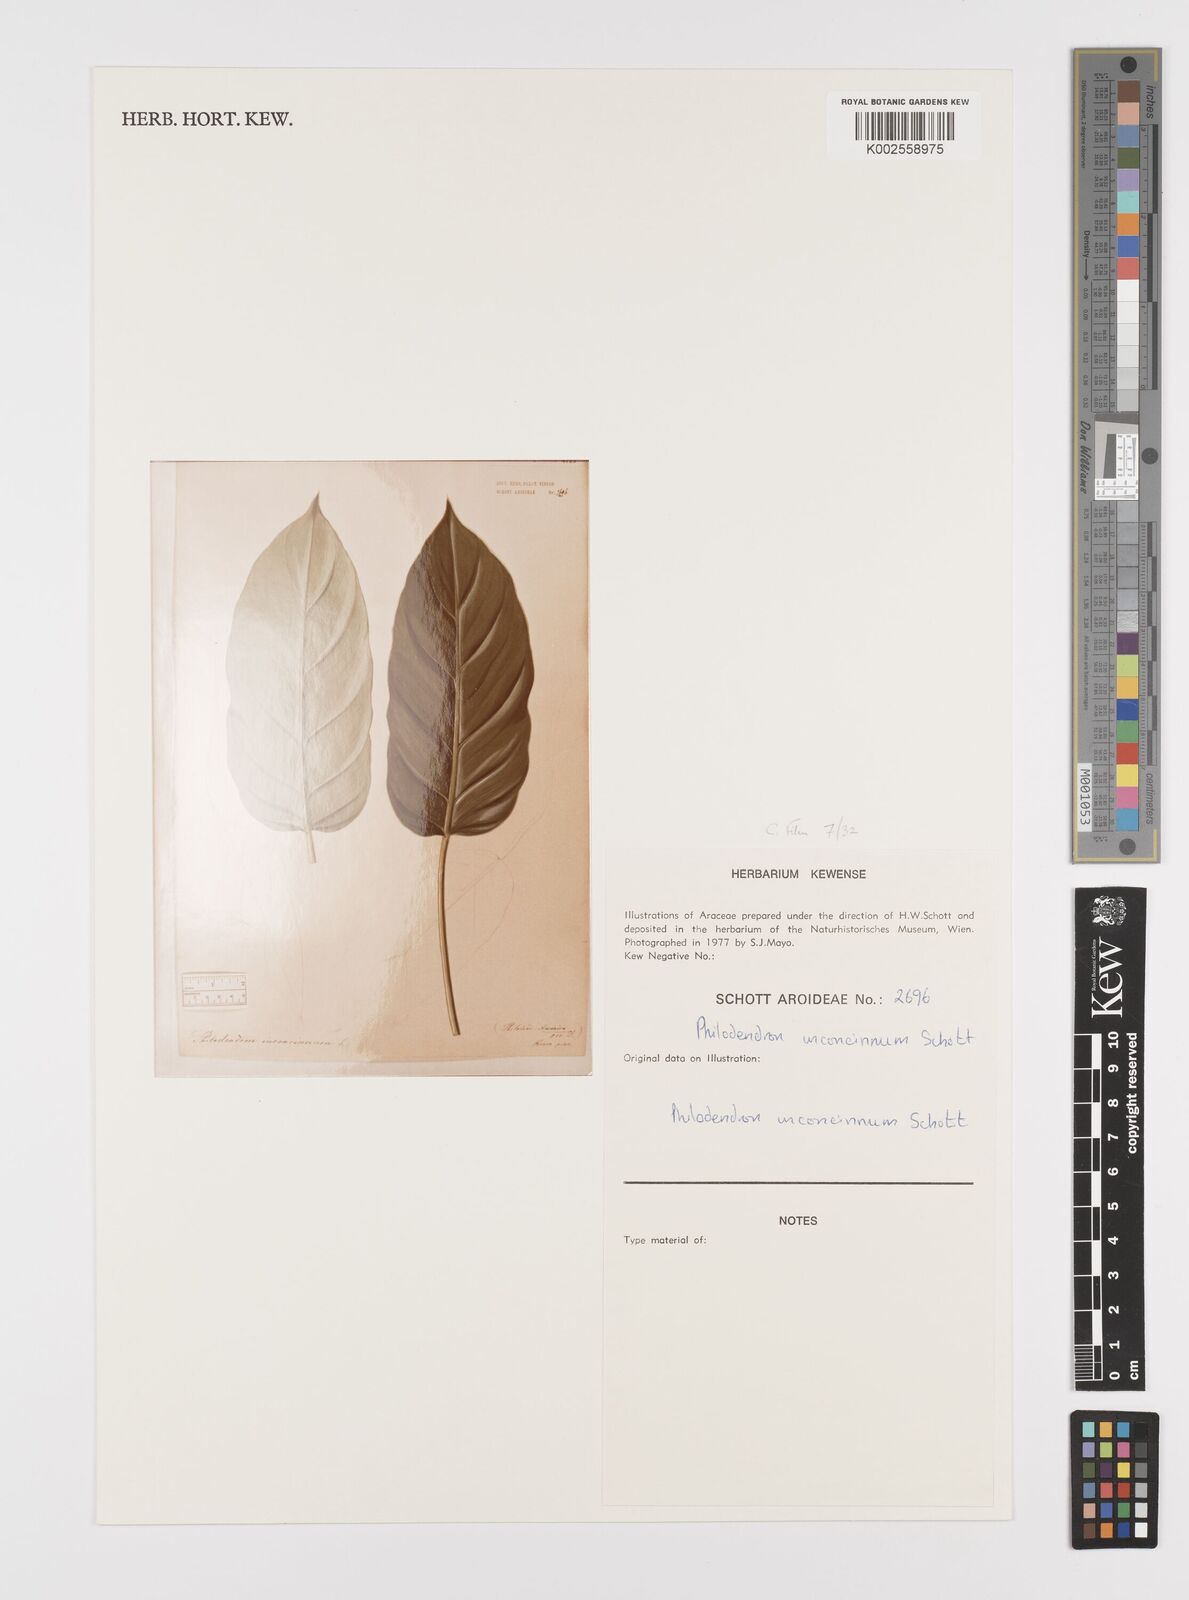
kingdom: Plantae
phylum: Tracheophyta
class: Liliopsida
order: Alismatales
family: Araceae
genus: Philodendron
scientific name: Philodendron inconcinnum
